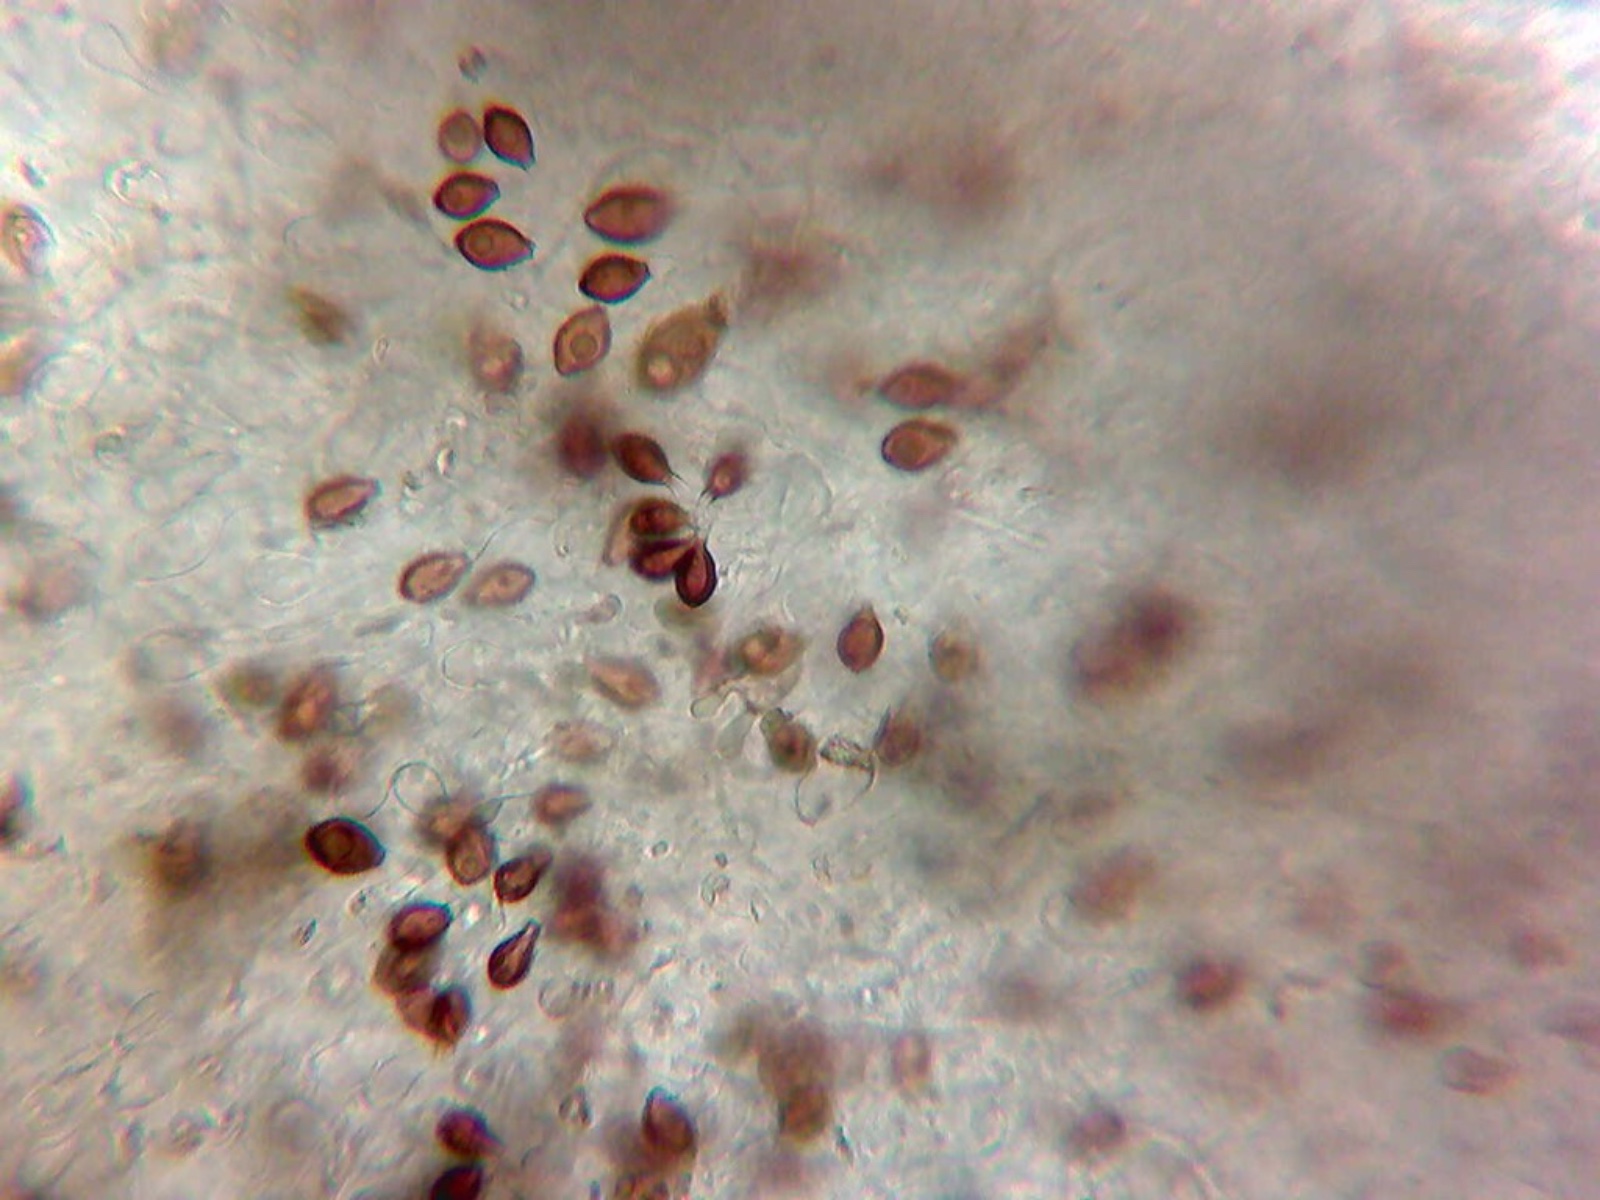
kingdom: Fungi
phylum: Basidiomycota
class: Agaricomycetes
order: Boletales
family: Paxillaceae
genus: Melanogaster
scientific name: Melanogaster ambiguus
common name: lille slimtrøffel
